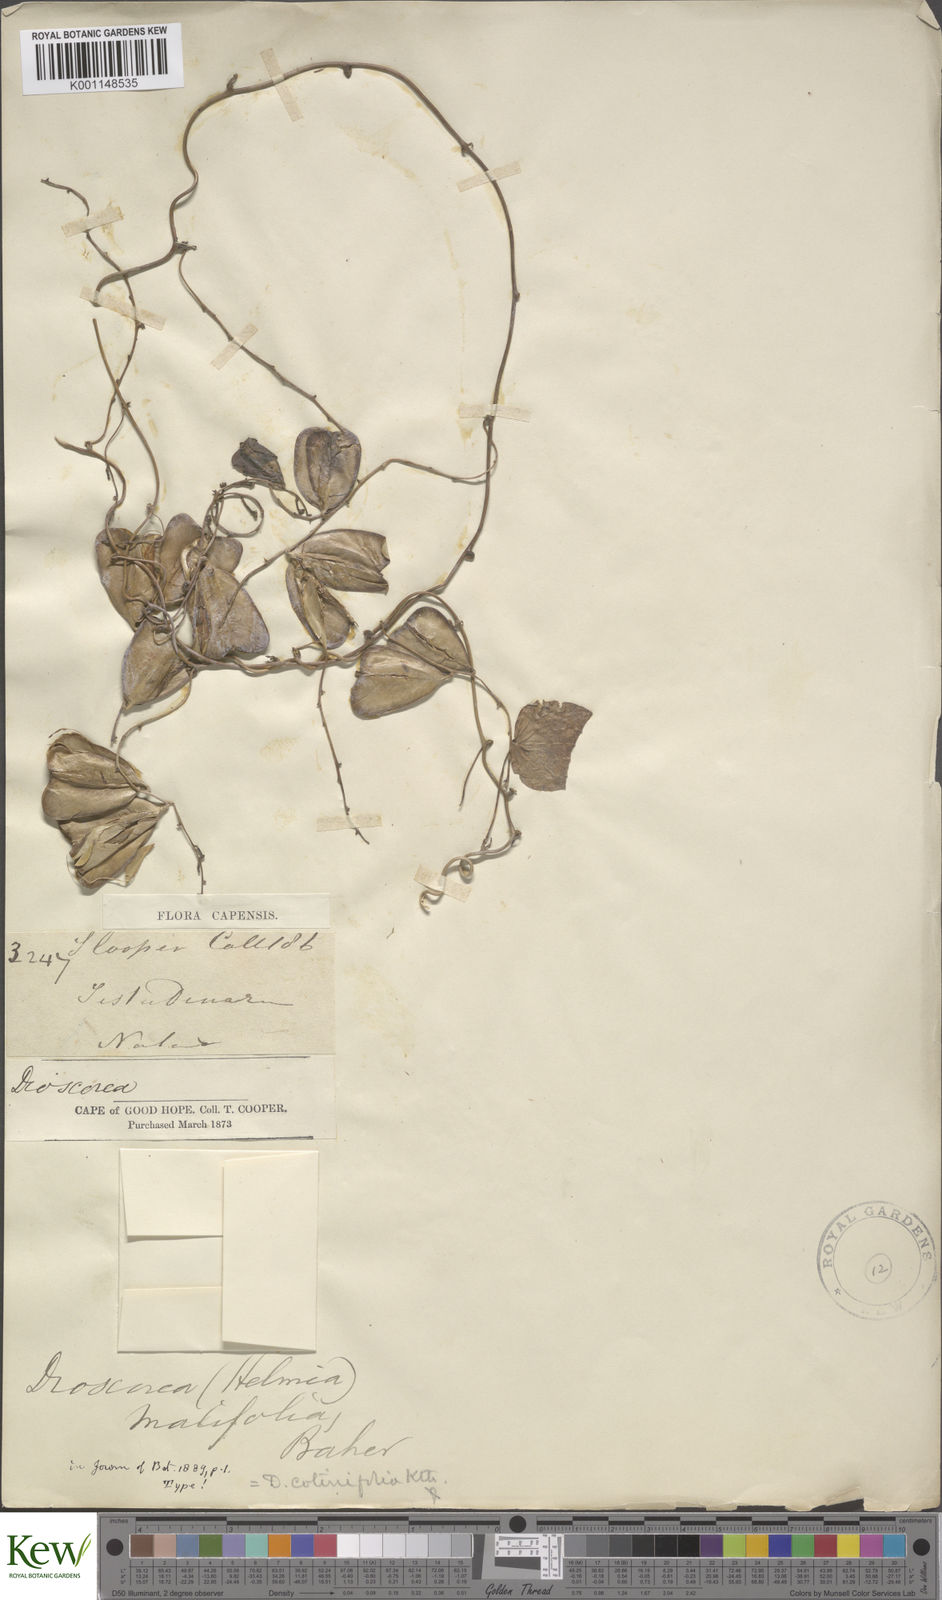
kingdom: Plantae
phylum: Tracheophyta
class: Liliopsida
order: Dioscoreales
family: Dioscoreaceae
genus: Dioscorea
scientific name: Dioscorea cotinifolia
